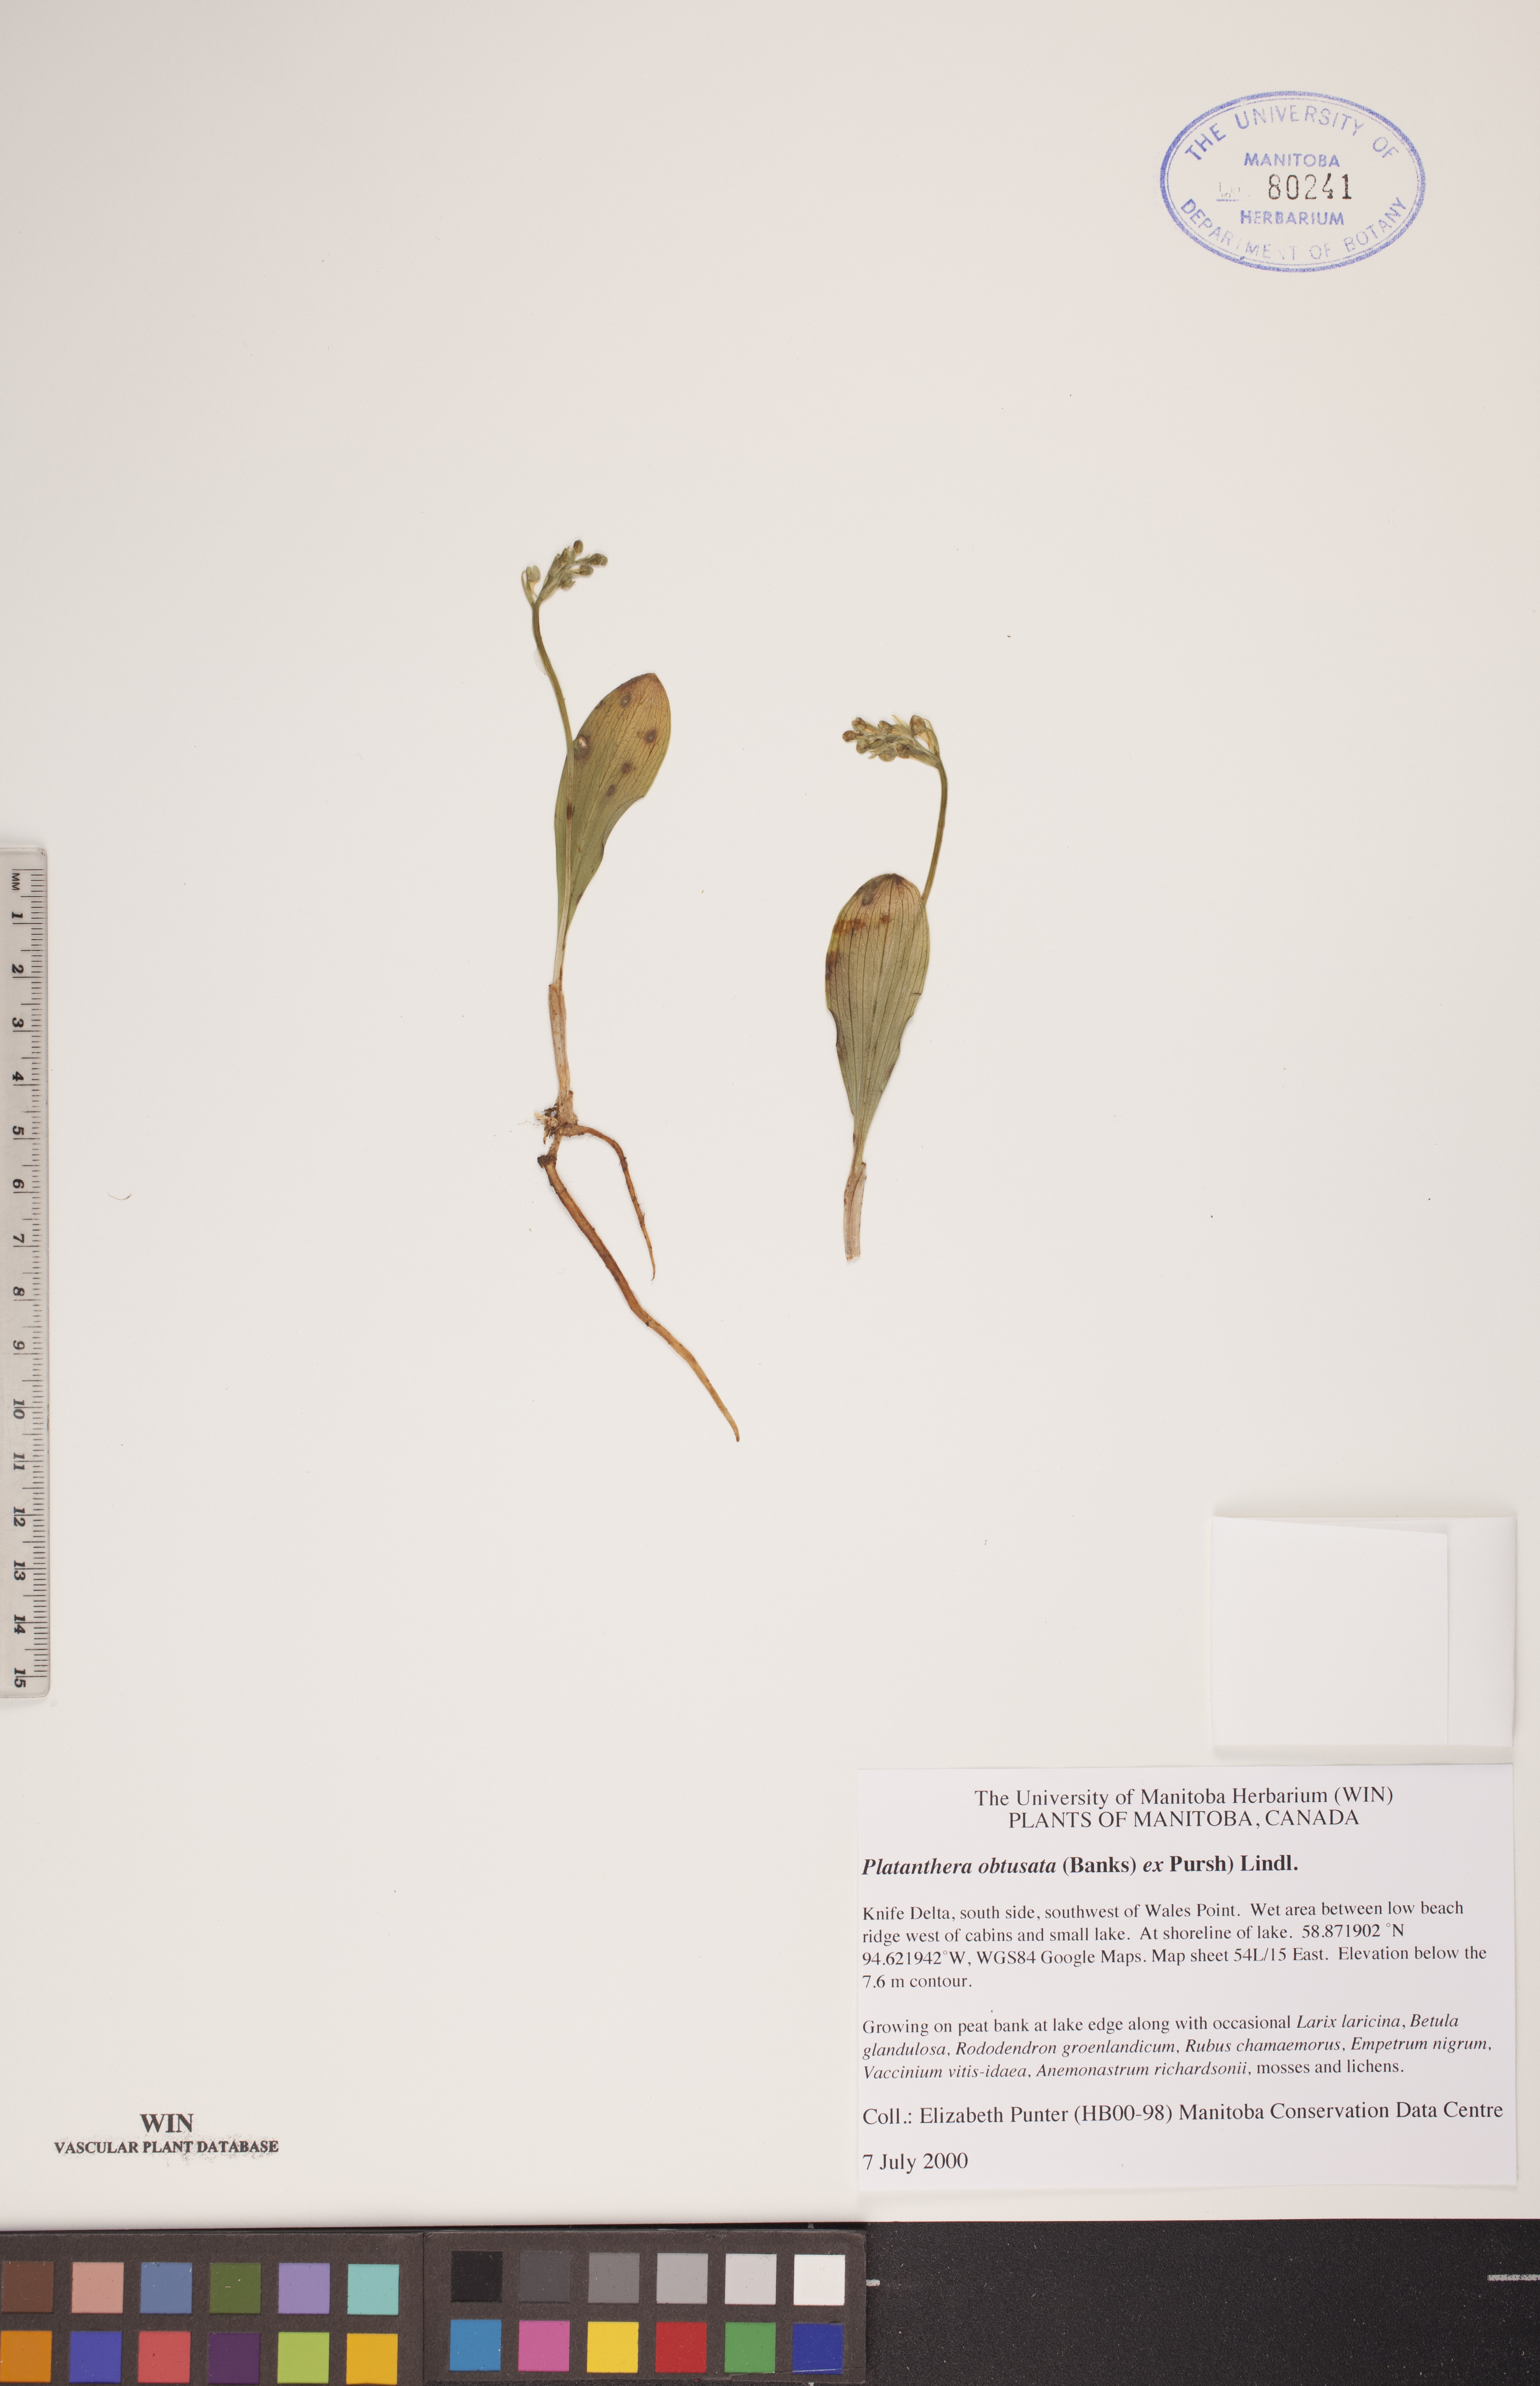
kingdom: Plantae
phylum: Tracheophyta
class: Liliopsida
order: Asparagales
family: Orchidaceae
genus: Platanthera
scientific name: Platanthera obtusata
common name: Blunt bog orchid
